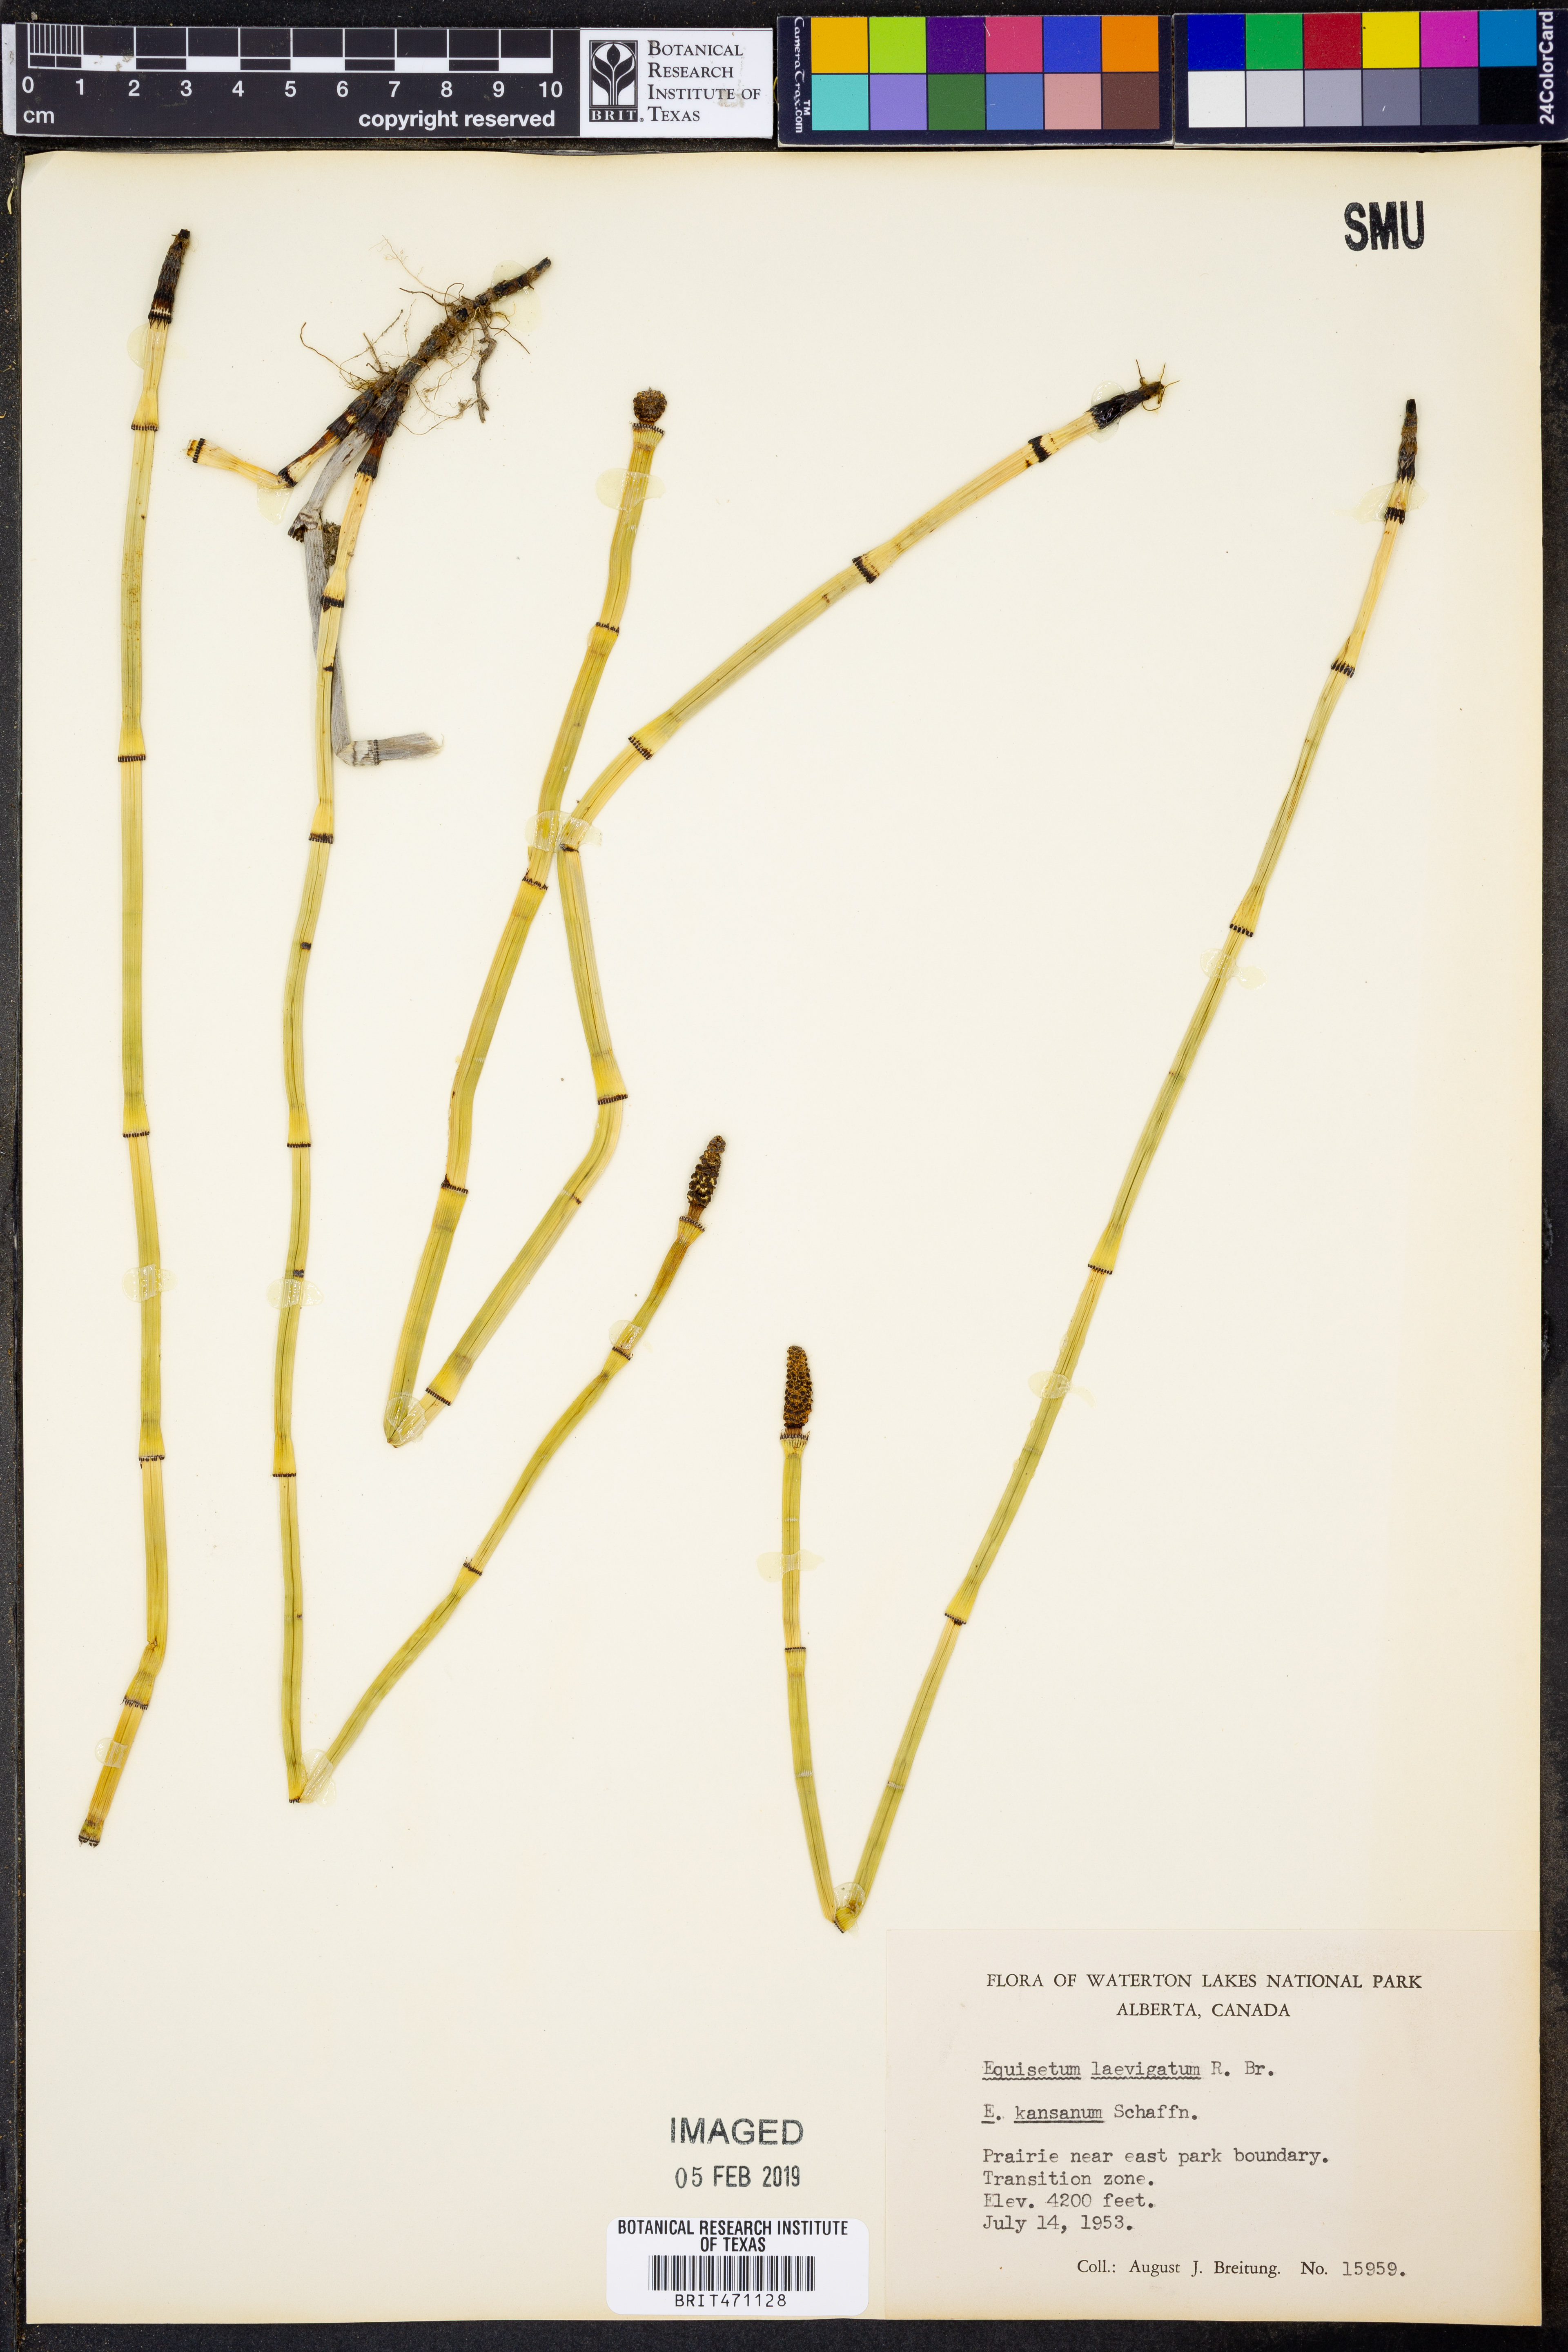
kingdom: Plantae
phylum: Tracheophyta
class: Polypodiopsida
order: Equisetales
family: Equisetaceae
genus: Equisetum
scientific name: Equisetum laevigatum
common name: Smooth scouring-rush
